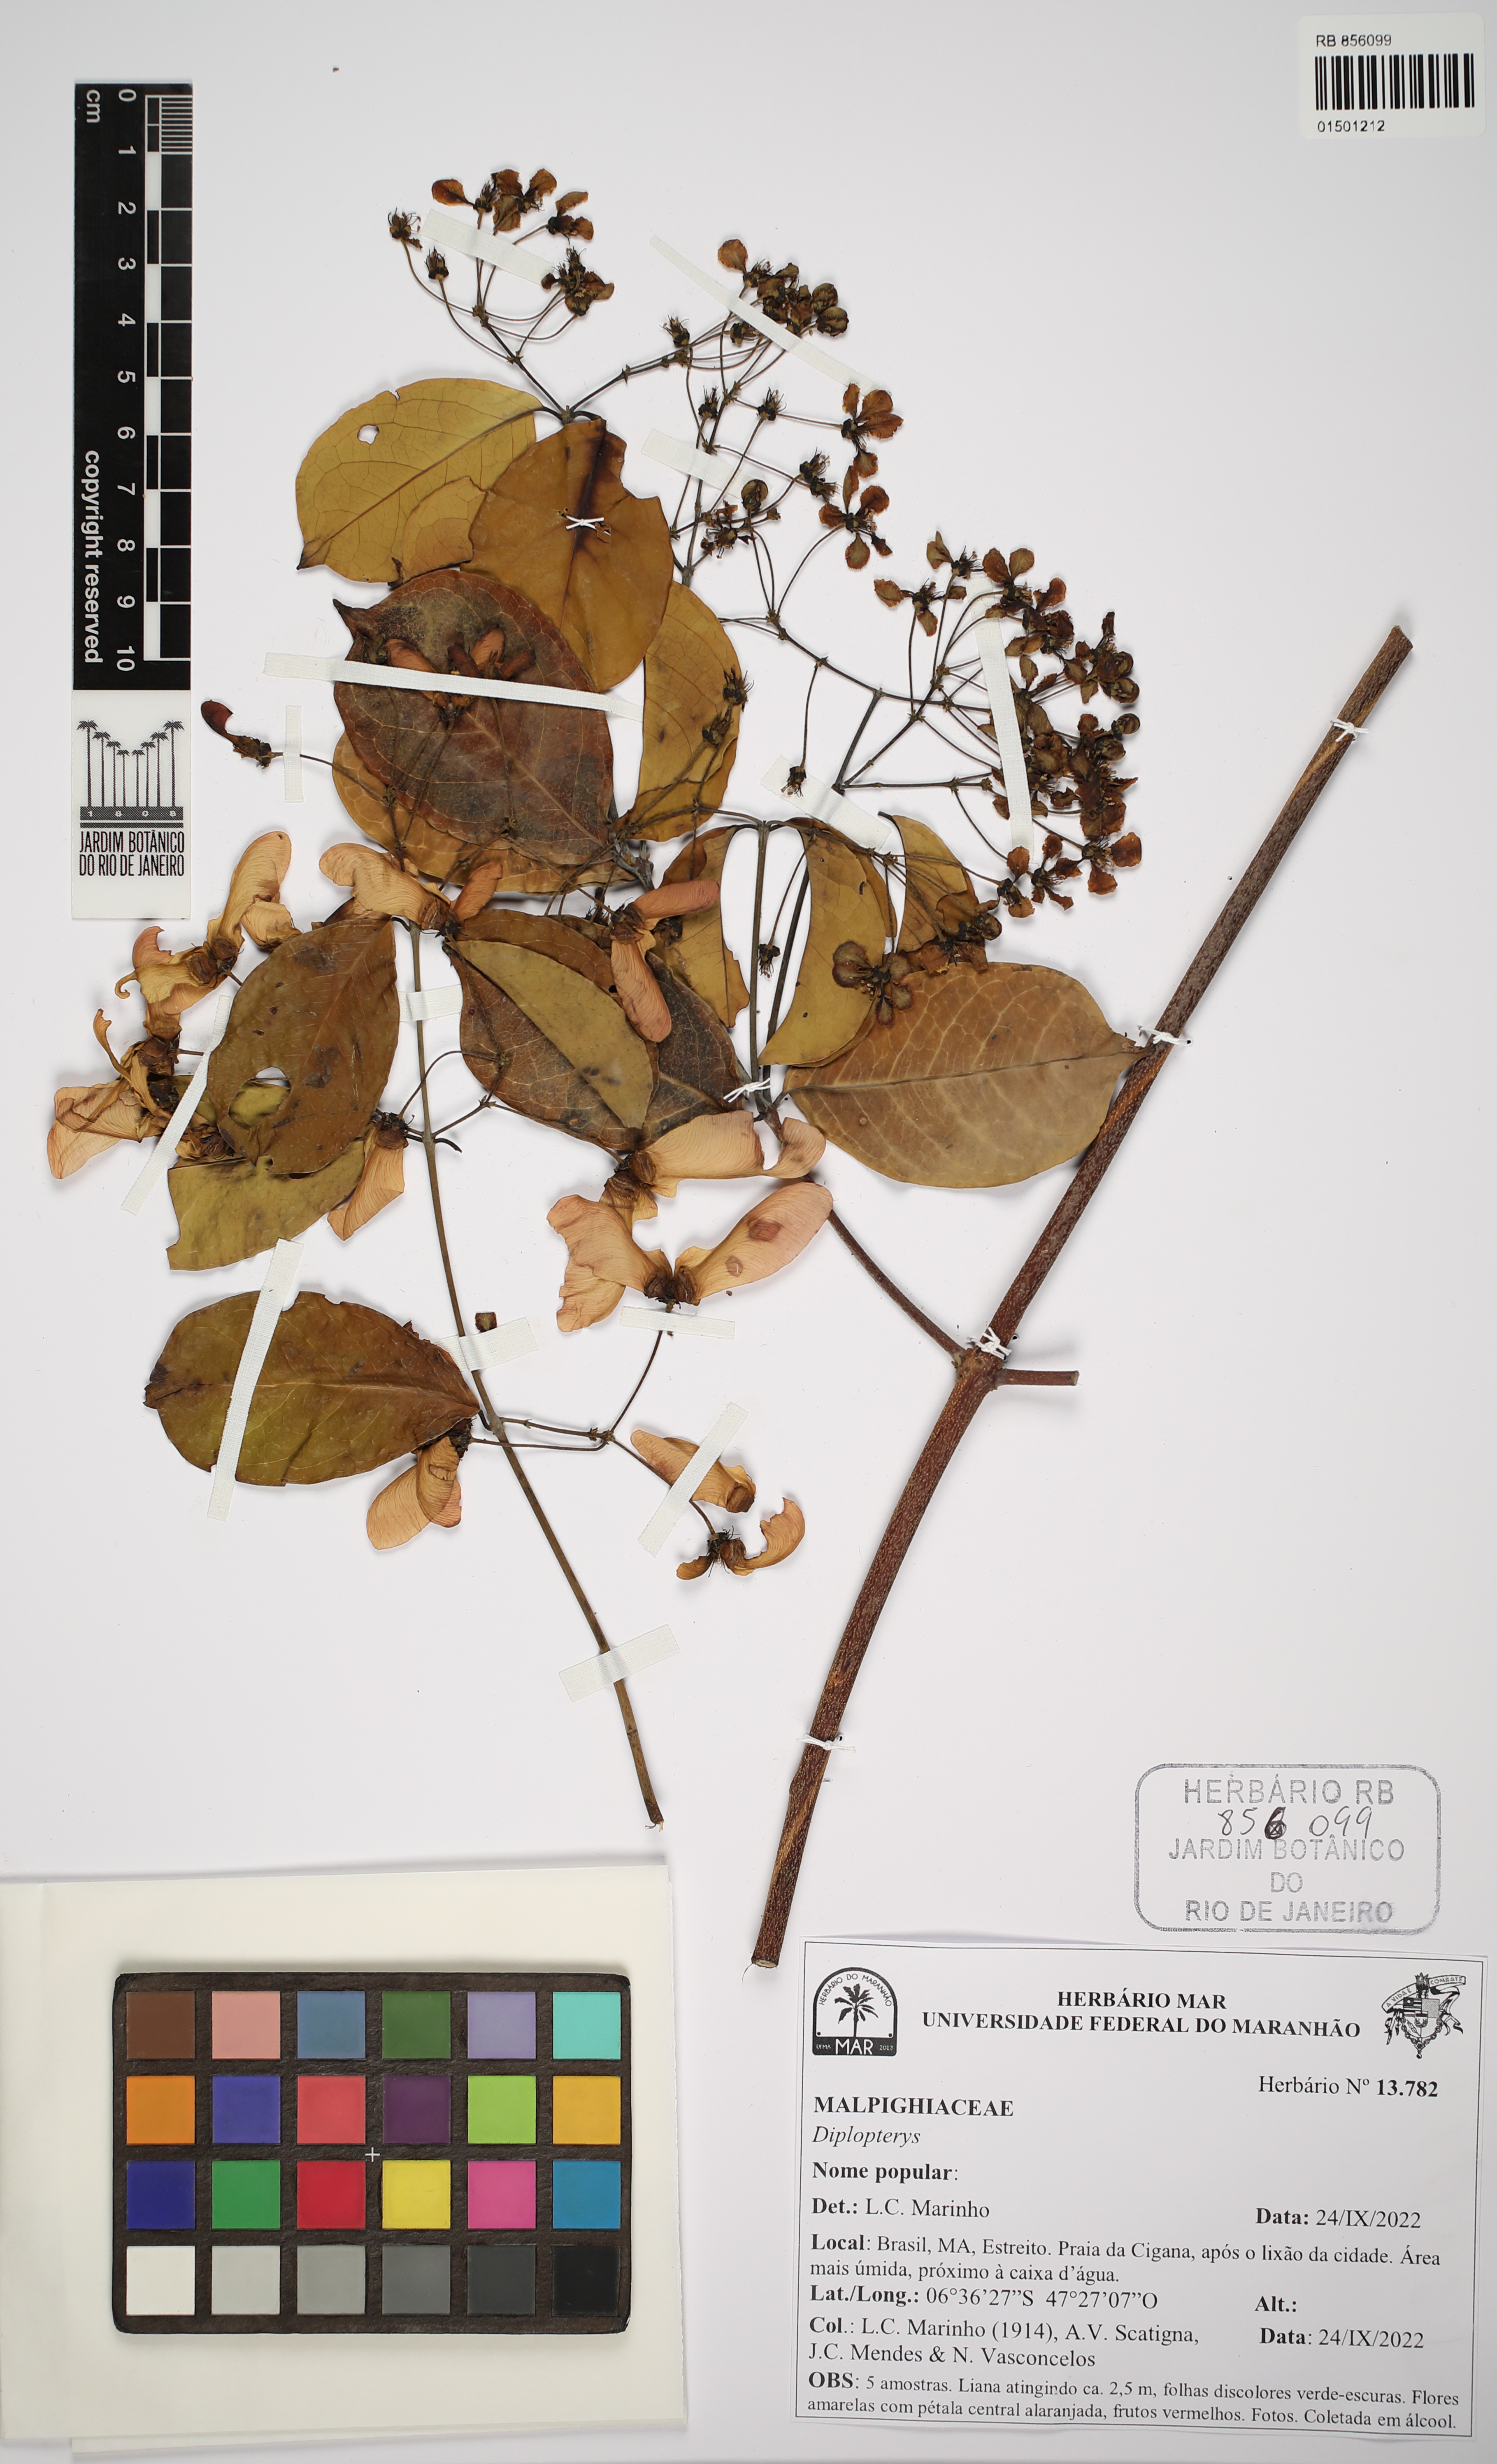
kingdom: Plantae
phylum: Tracheophyta
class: Magnoliopsida
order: Malpighiales
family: Malpighiaceae
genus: Diplopterys
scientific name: Diplopterys
